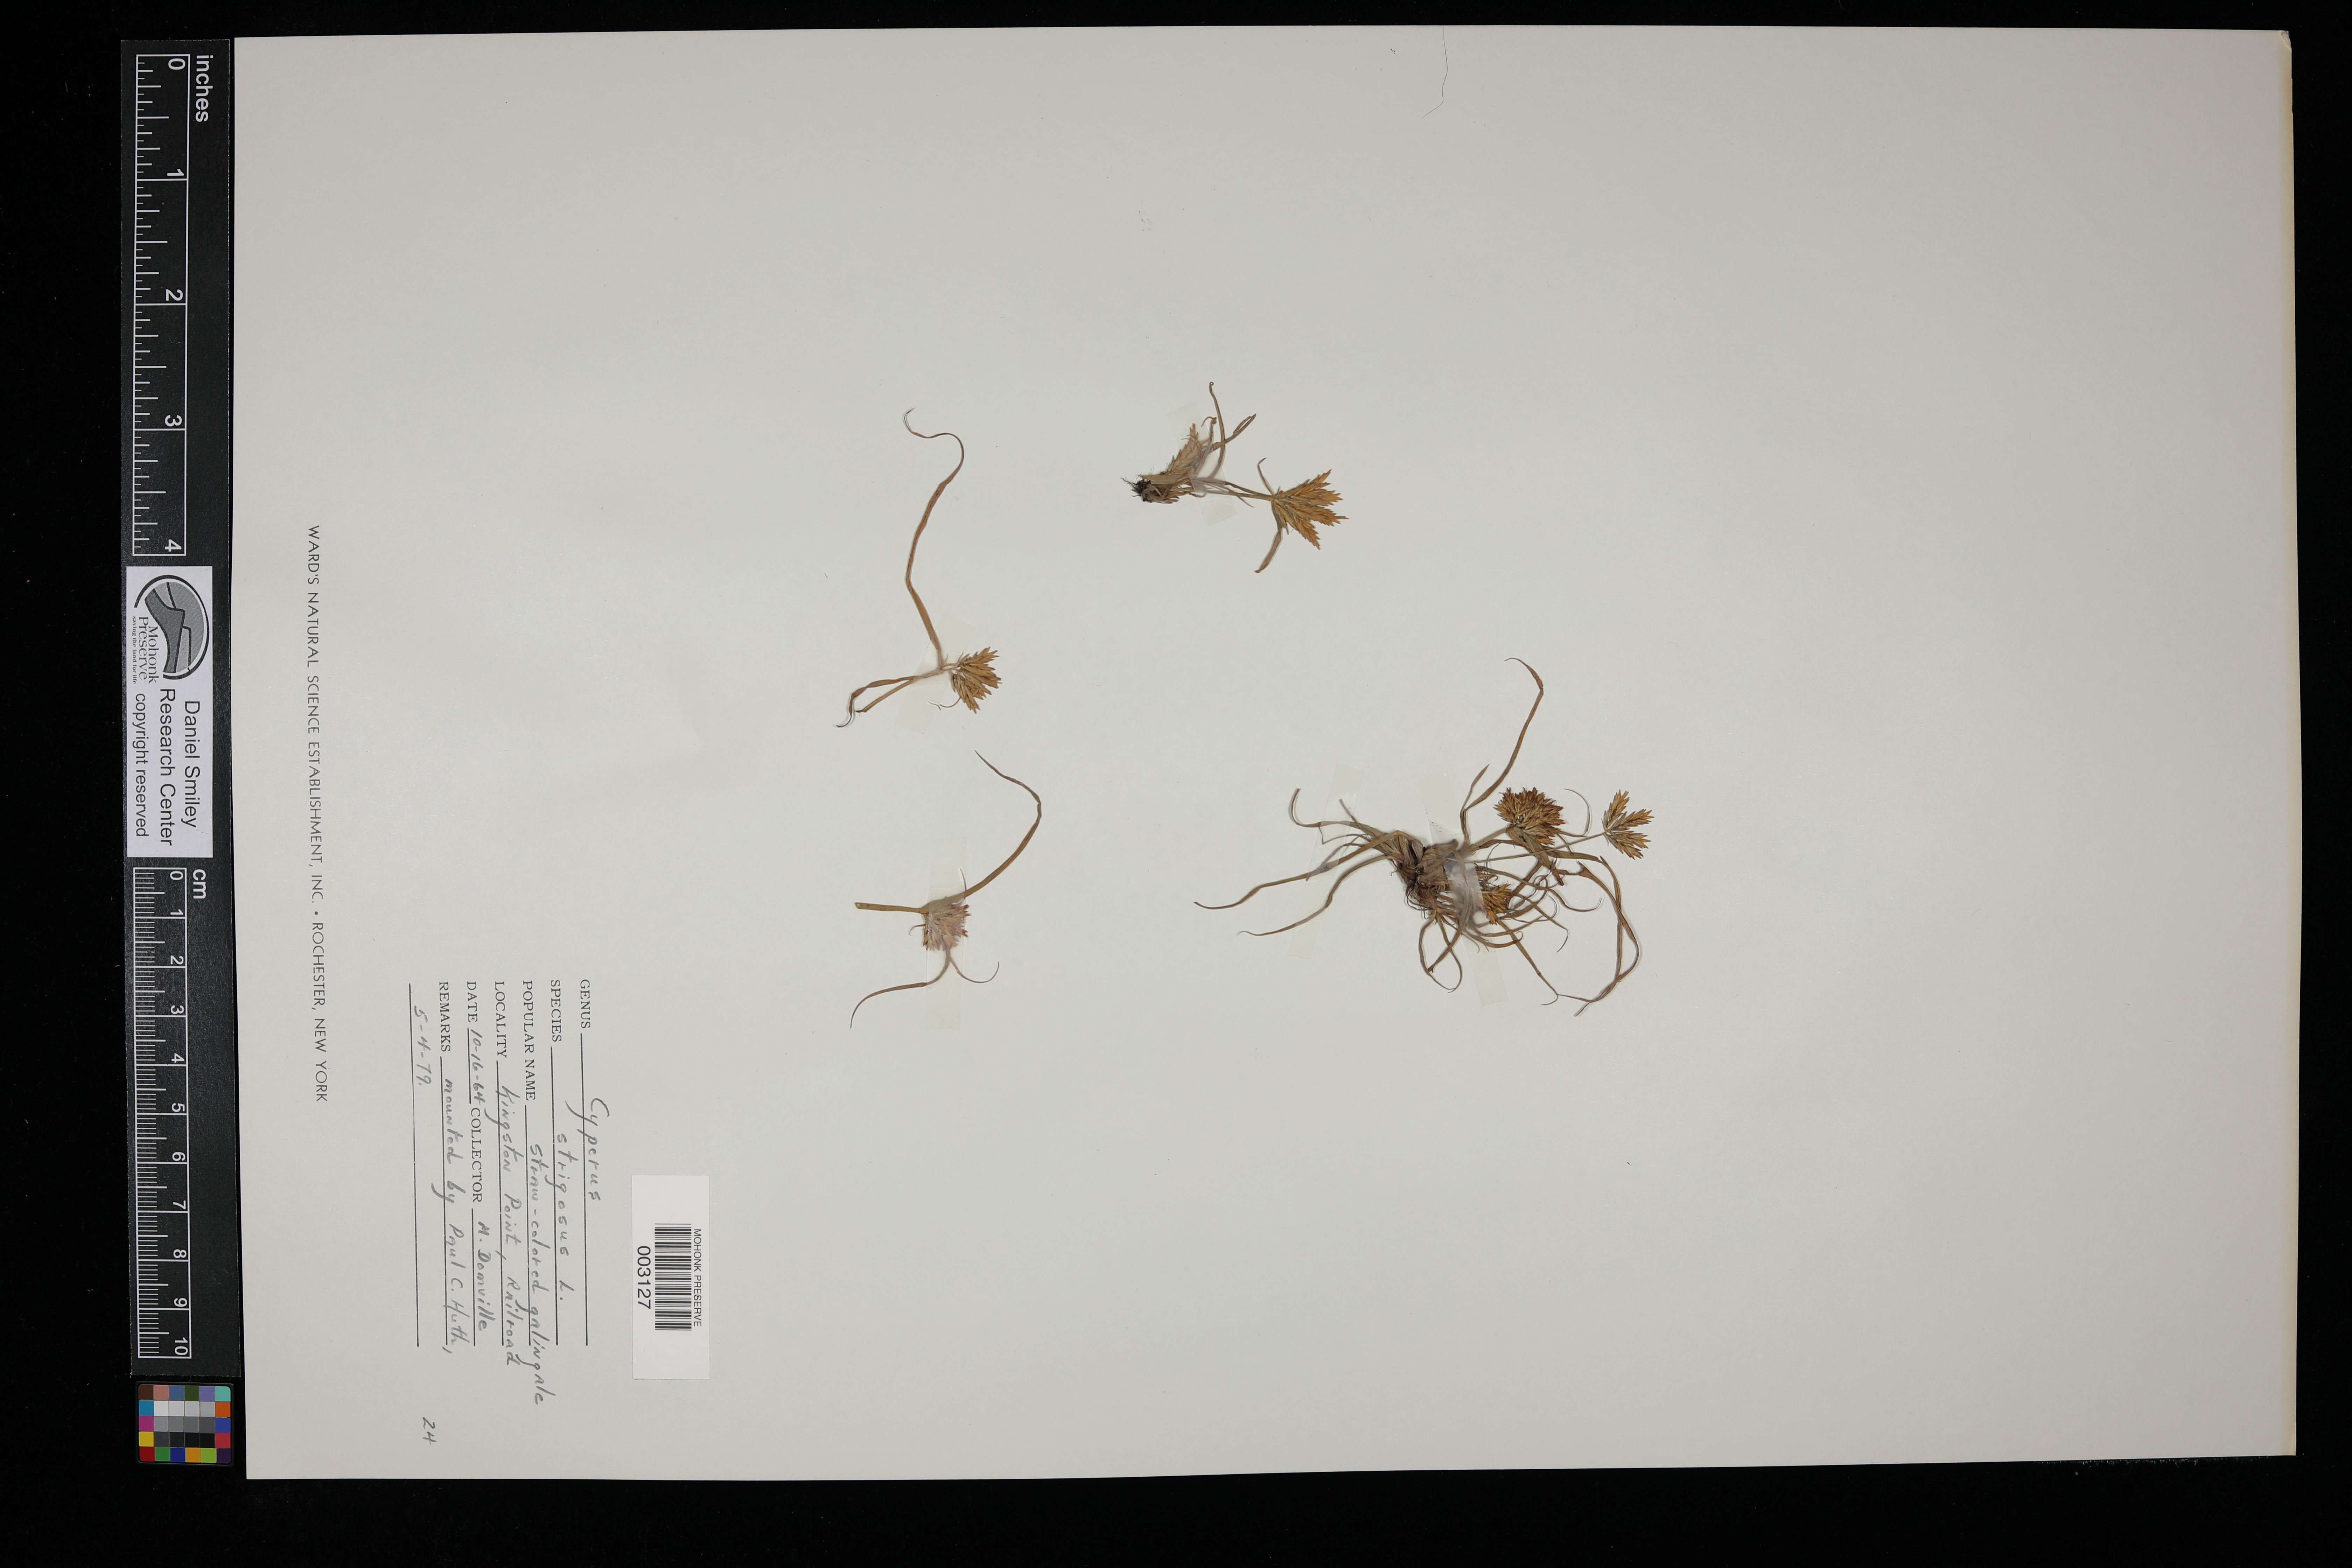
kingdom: Plantae
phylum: Tracheophyta
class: Liliopsida
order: Poales
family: Cyperaceae
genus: Cyperus
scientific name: Cyperus strigosus
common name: False nutsedge
